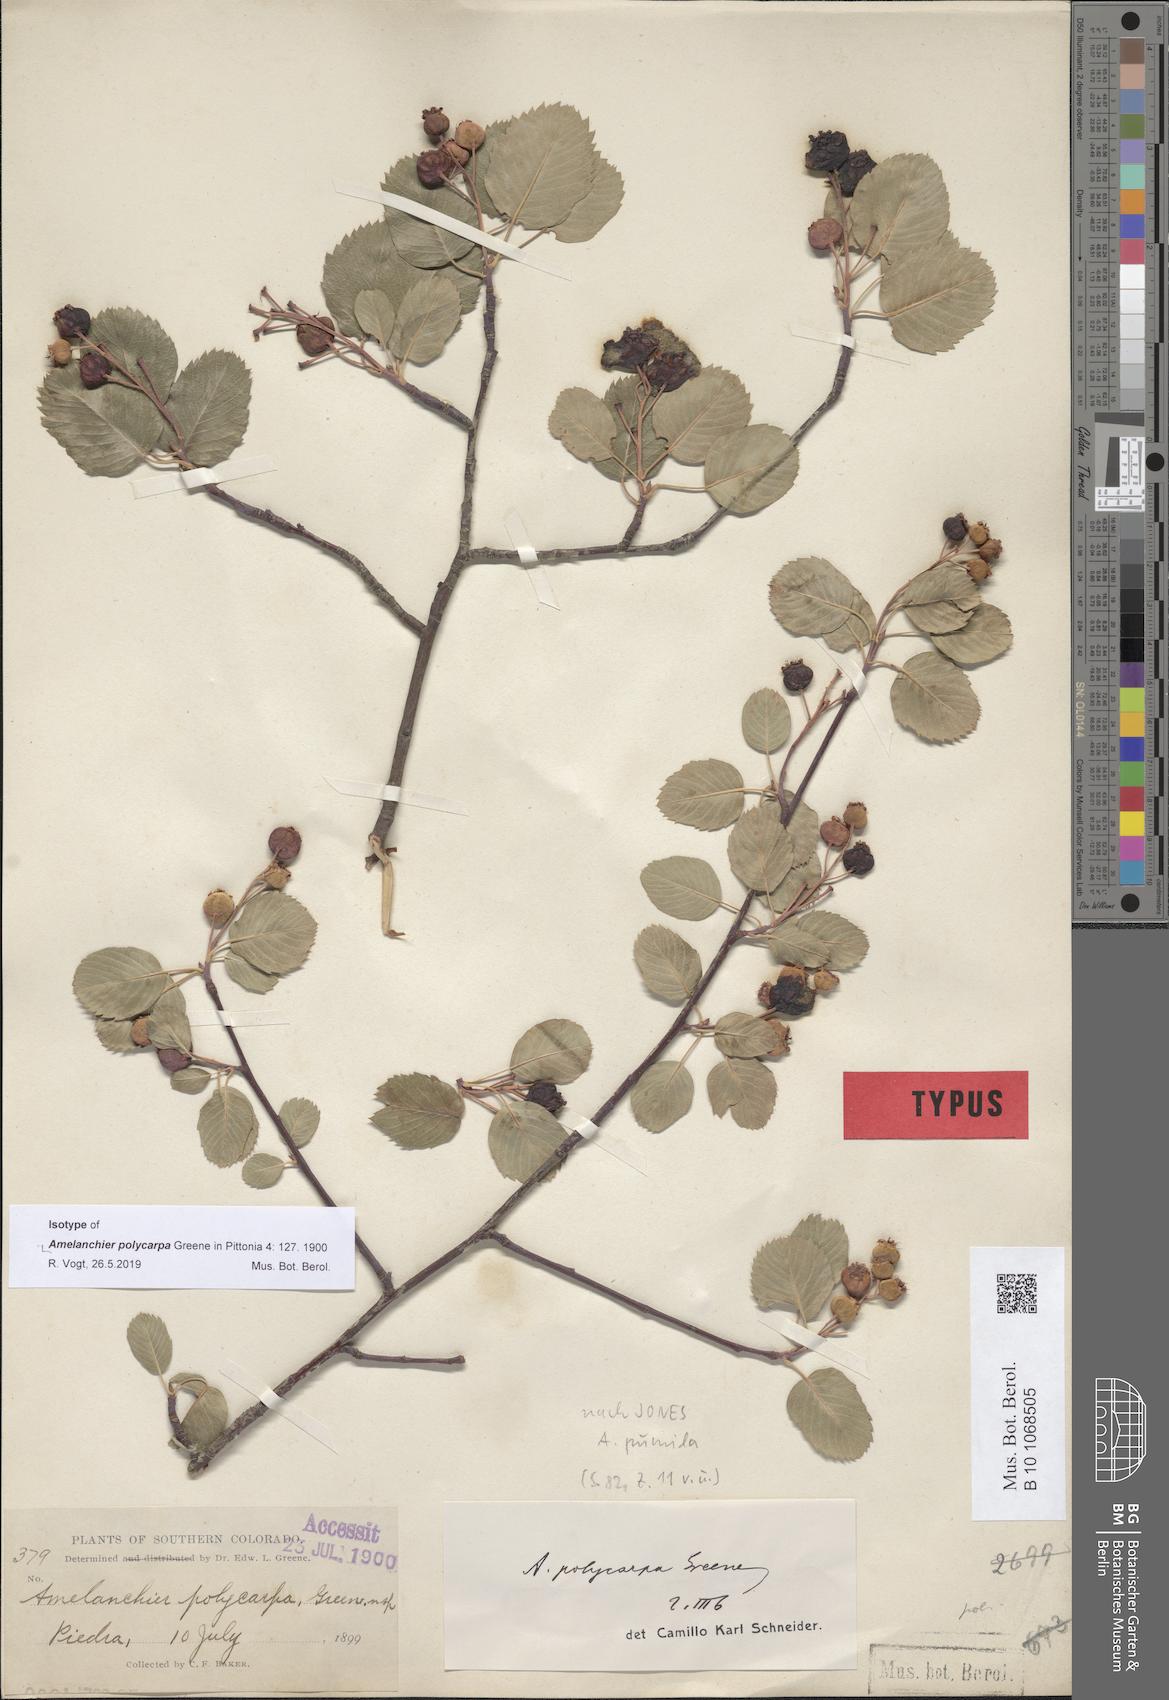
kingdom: Plantae
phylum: Tracheophyta
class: Magnoliopsida
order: Rosales
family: Rosaceae
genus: Amelanchier
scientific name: Amelanchier pumila
